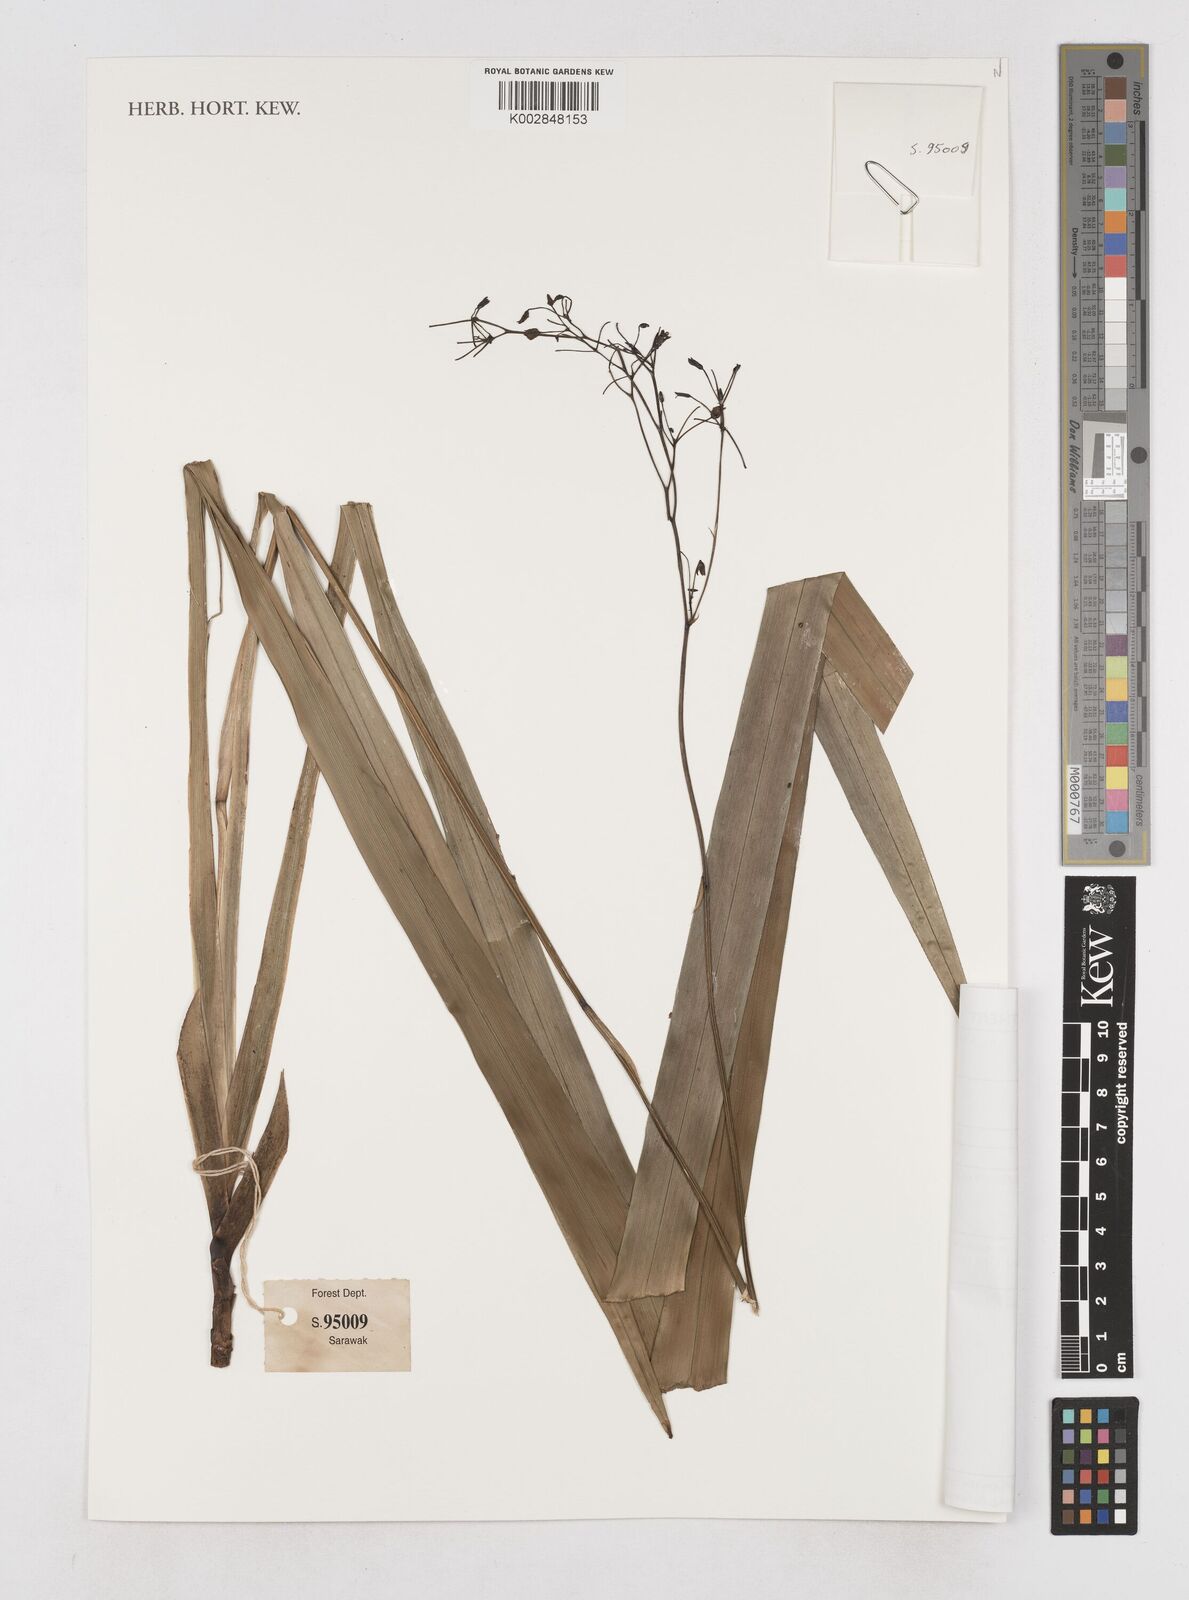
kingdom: Plantae
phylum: Tracheophyta
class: Liliopsida
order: Asparagales
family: Asphodelaceae
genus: Dianella
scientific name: Dianella ensifolia
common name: New zealand lilyplant
